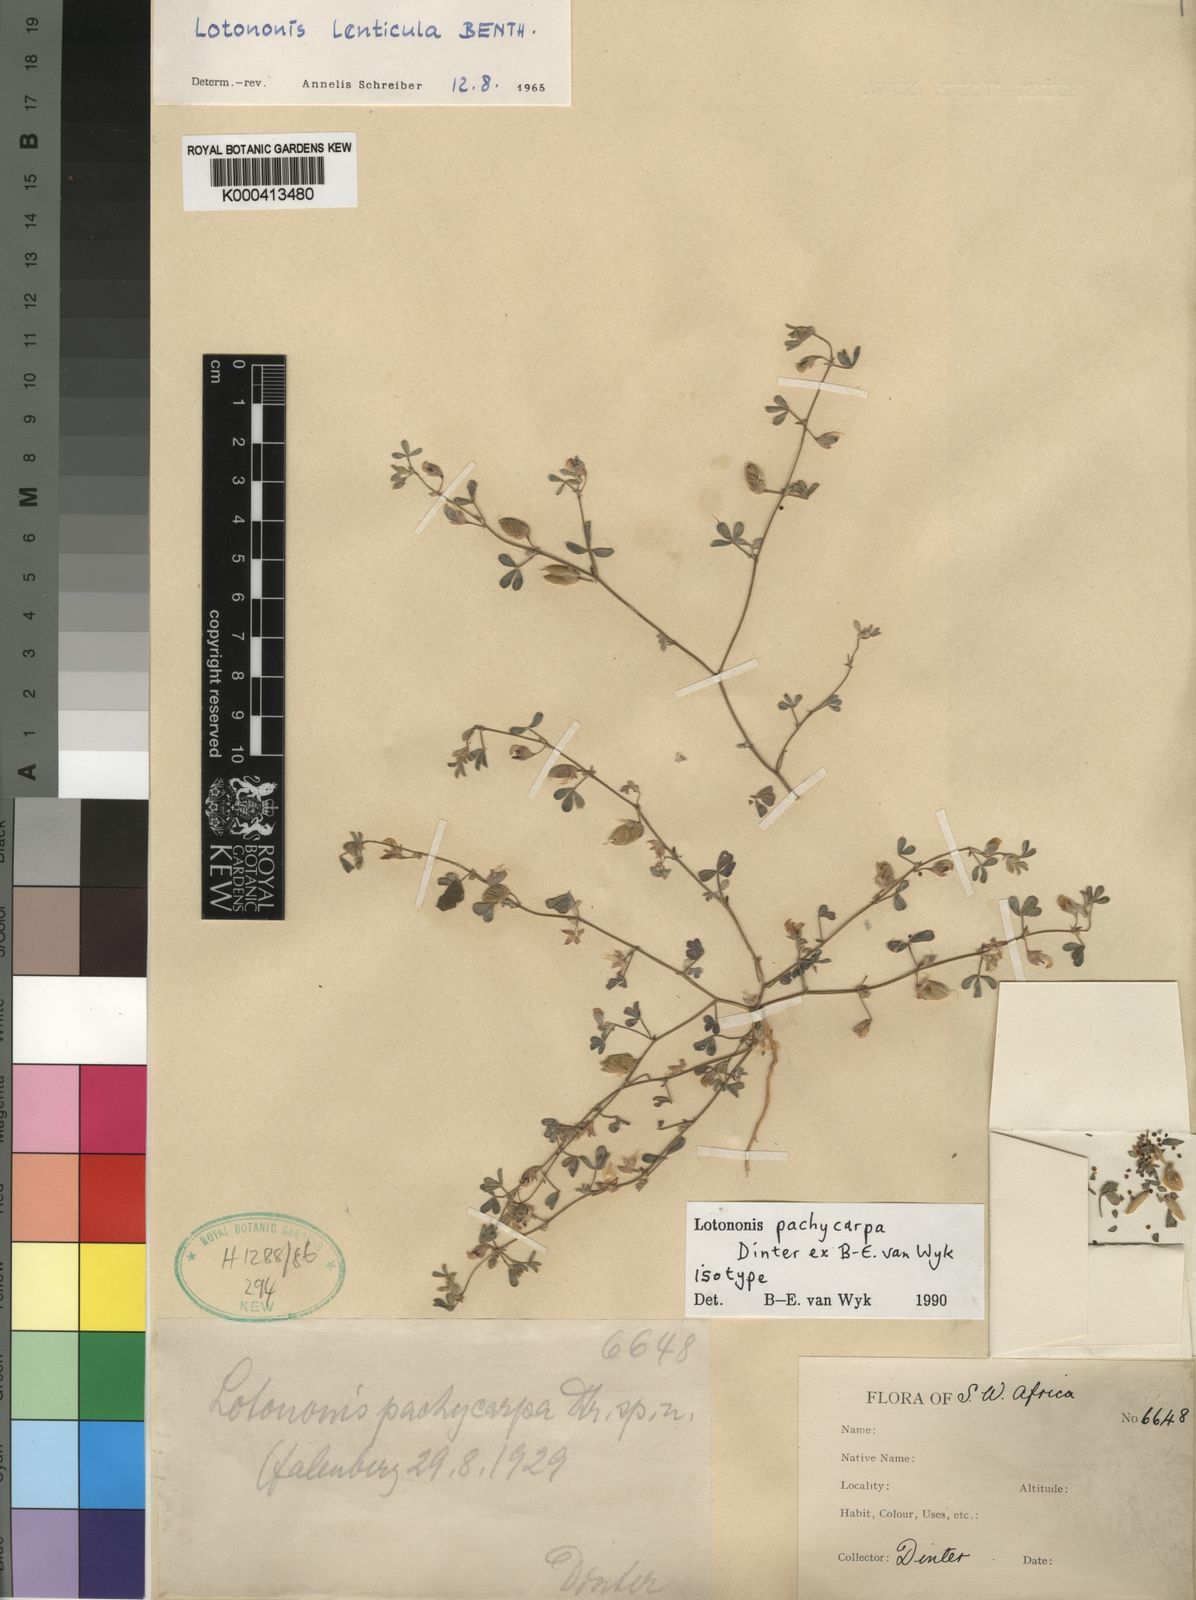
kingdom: Plantae
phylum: Tracheophyta
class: Magnoliopsida
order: Fabales
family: Fabaceae
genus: Lotononis
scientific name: Lotononis pachycarpa
